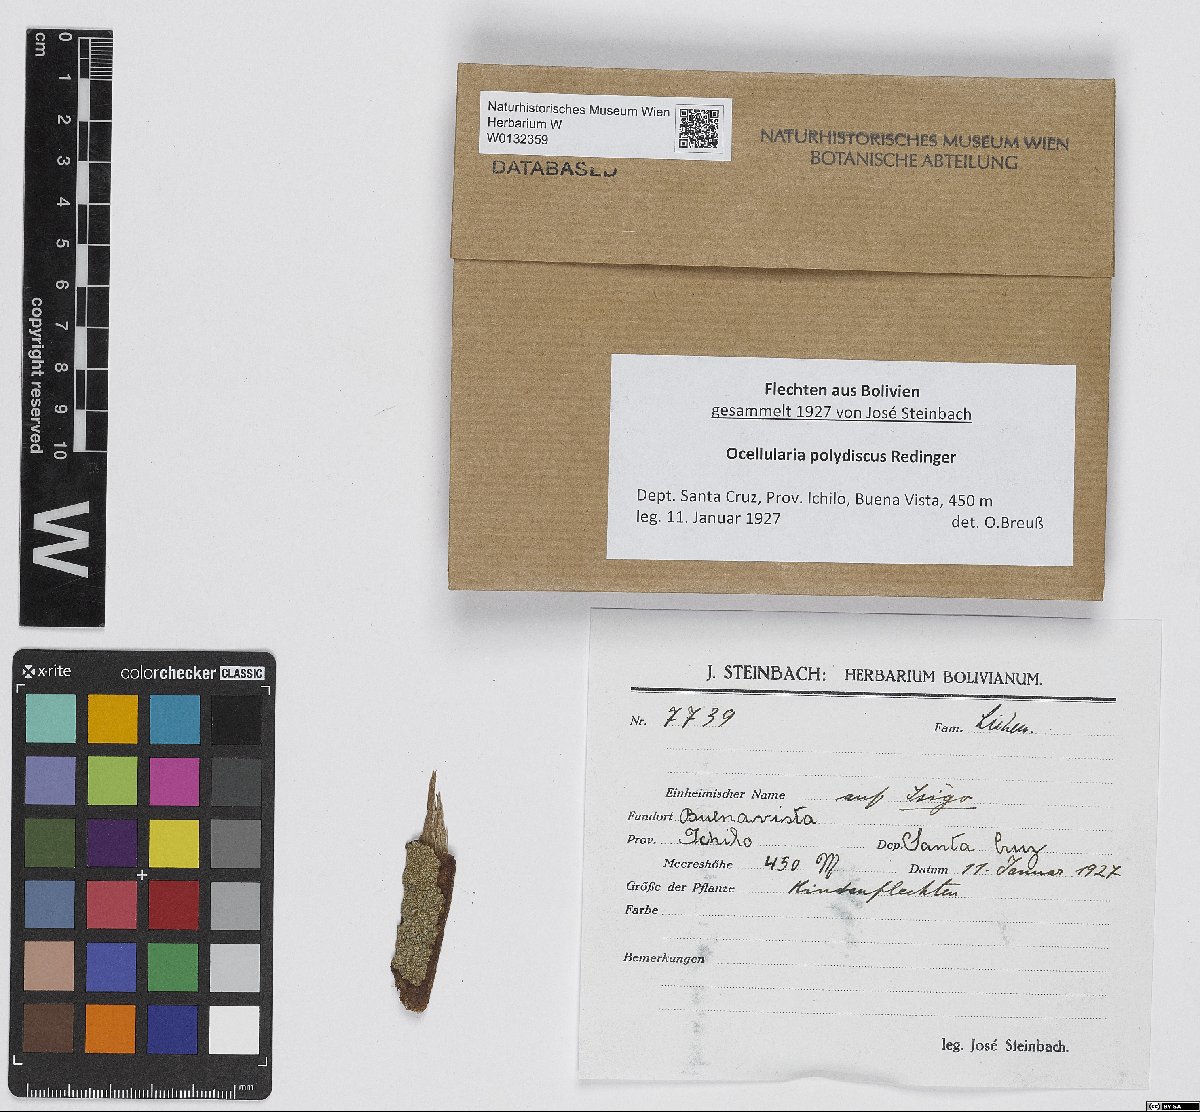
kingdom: Fungi
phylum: Ascomycota
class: Lecanoromycetes
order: Ostropales
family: Graphidaceae
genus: Ocellularia
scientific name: Ocellularia polydisca
